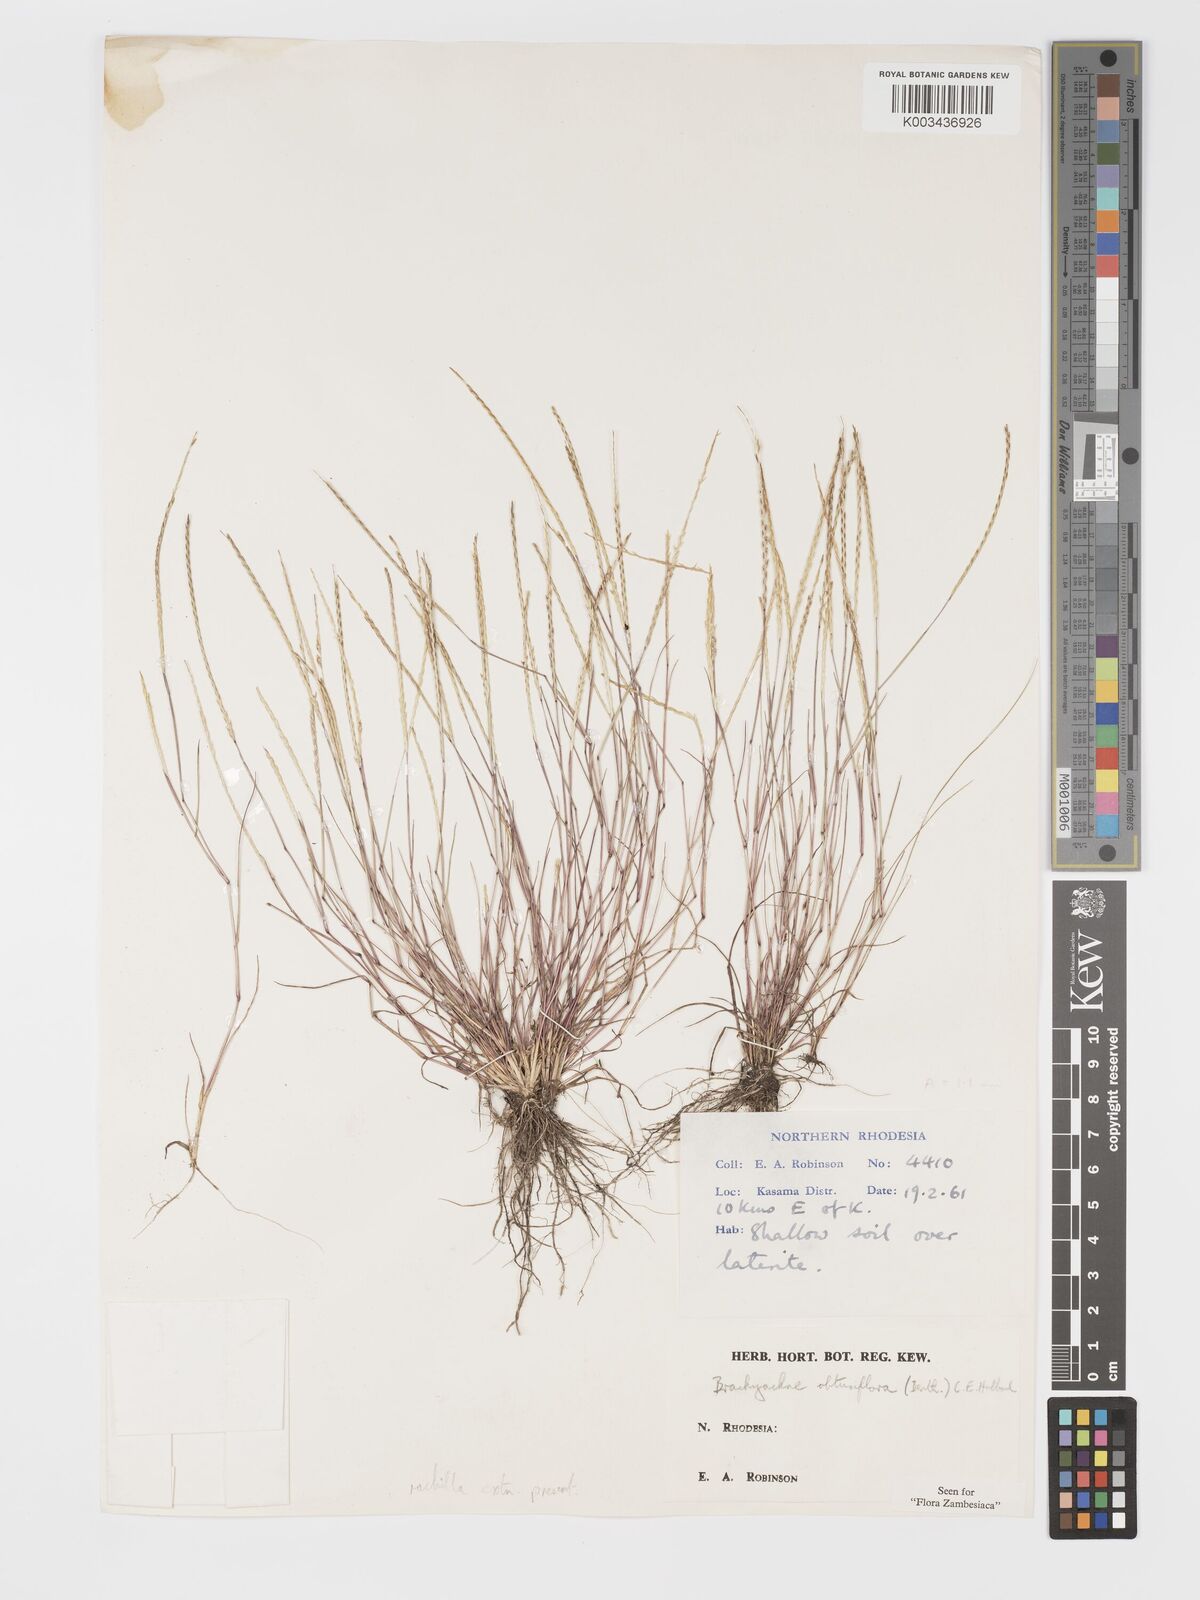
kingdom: Plantae
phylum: Tracheophyta
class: Liliopsida
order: Poales
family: Poaceae
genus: Micrachne
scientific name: Micrachne obtusiflora
